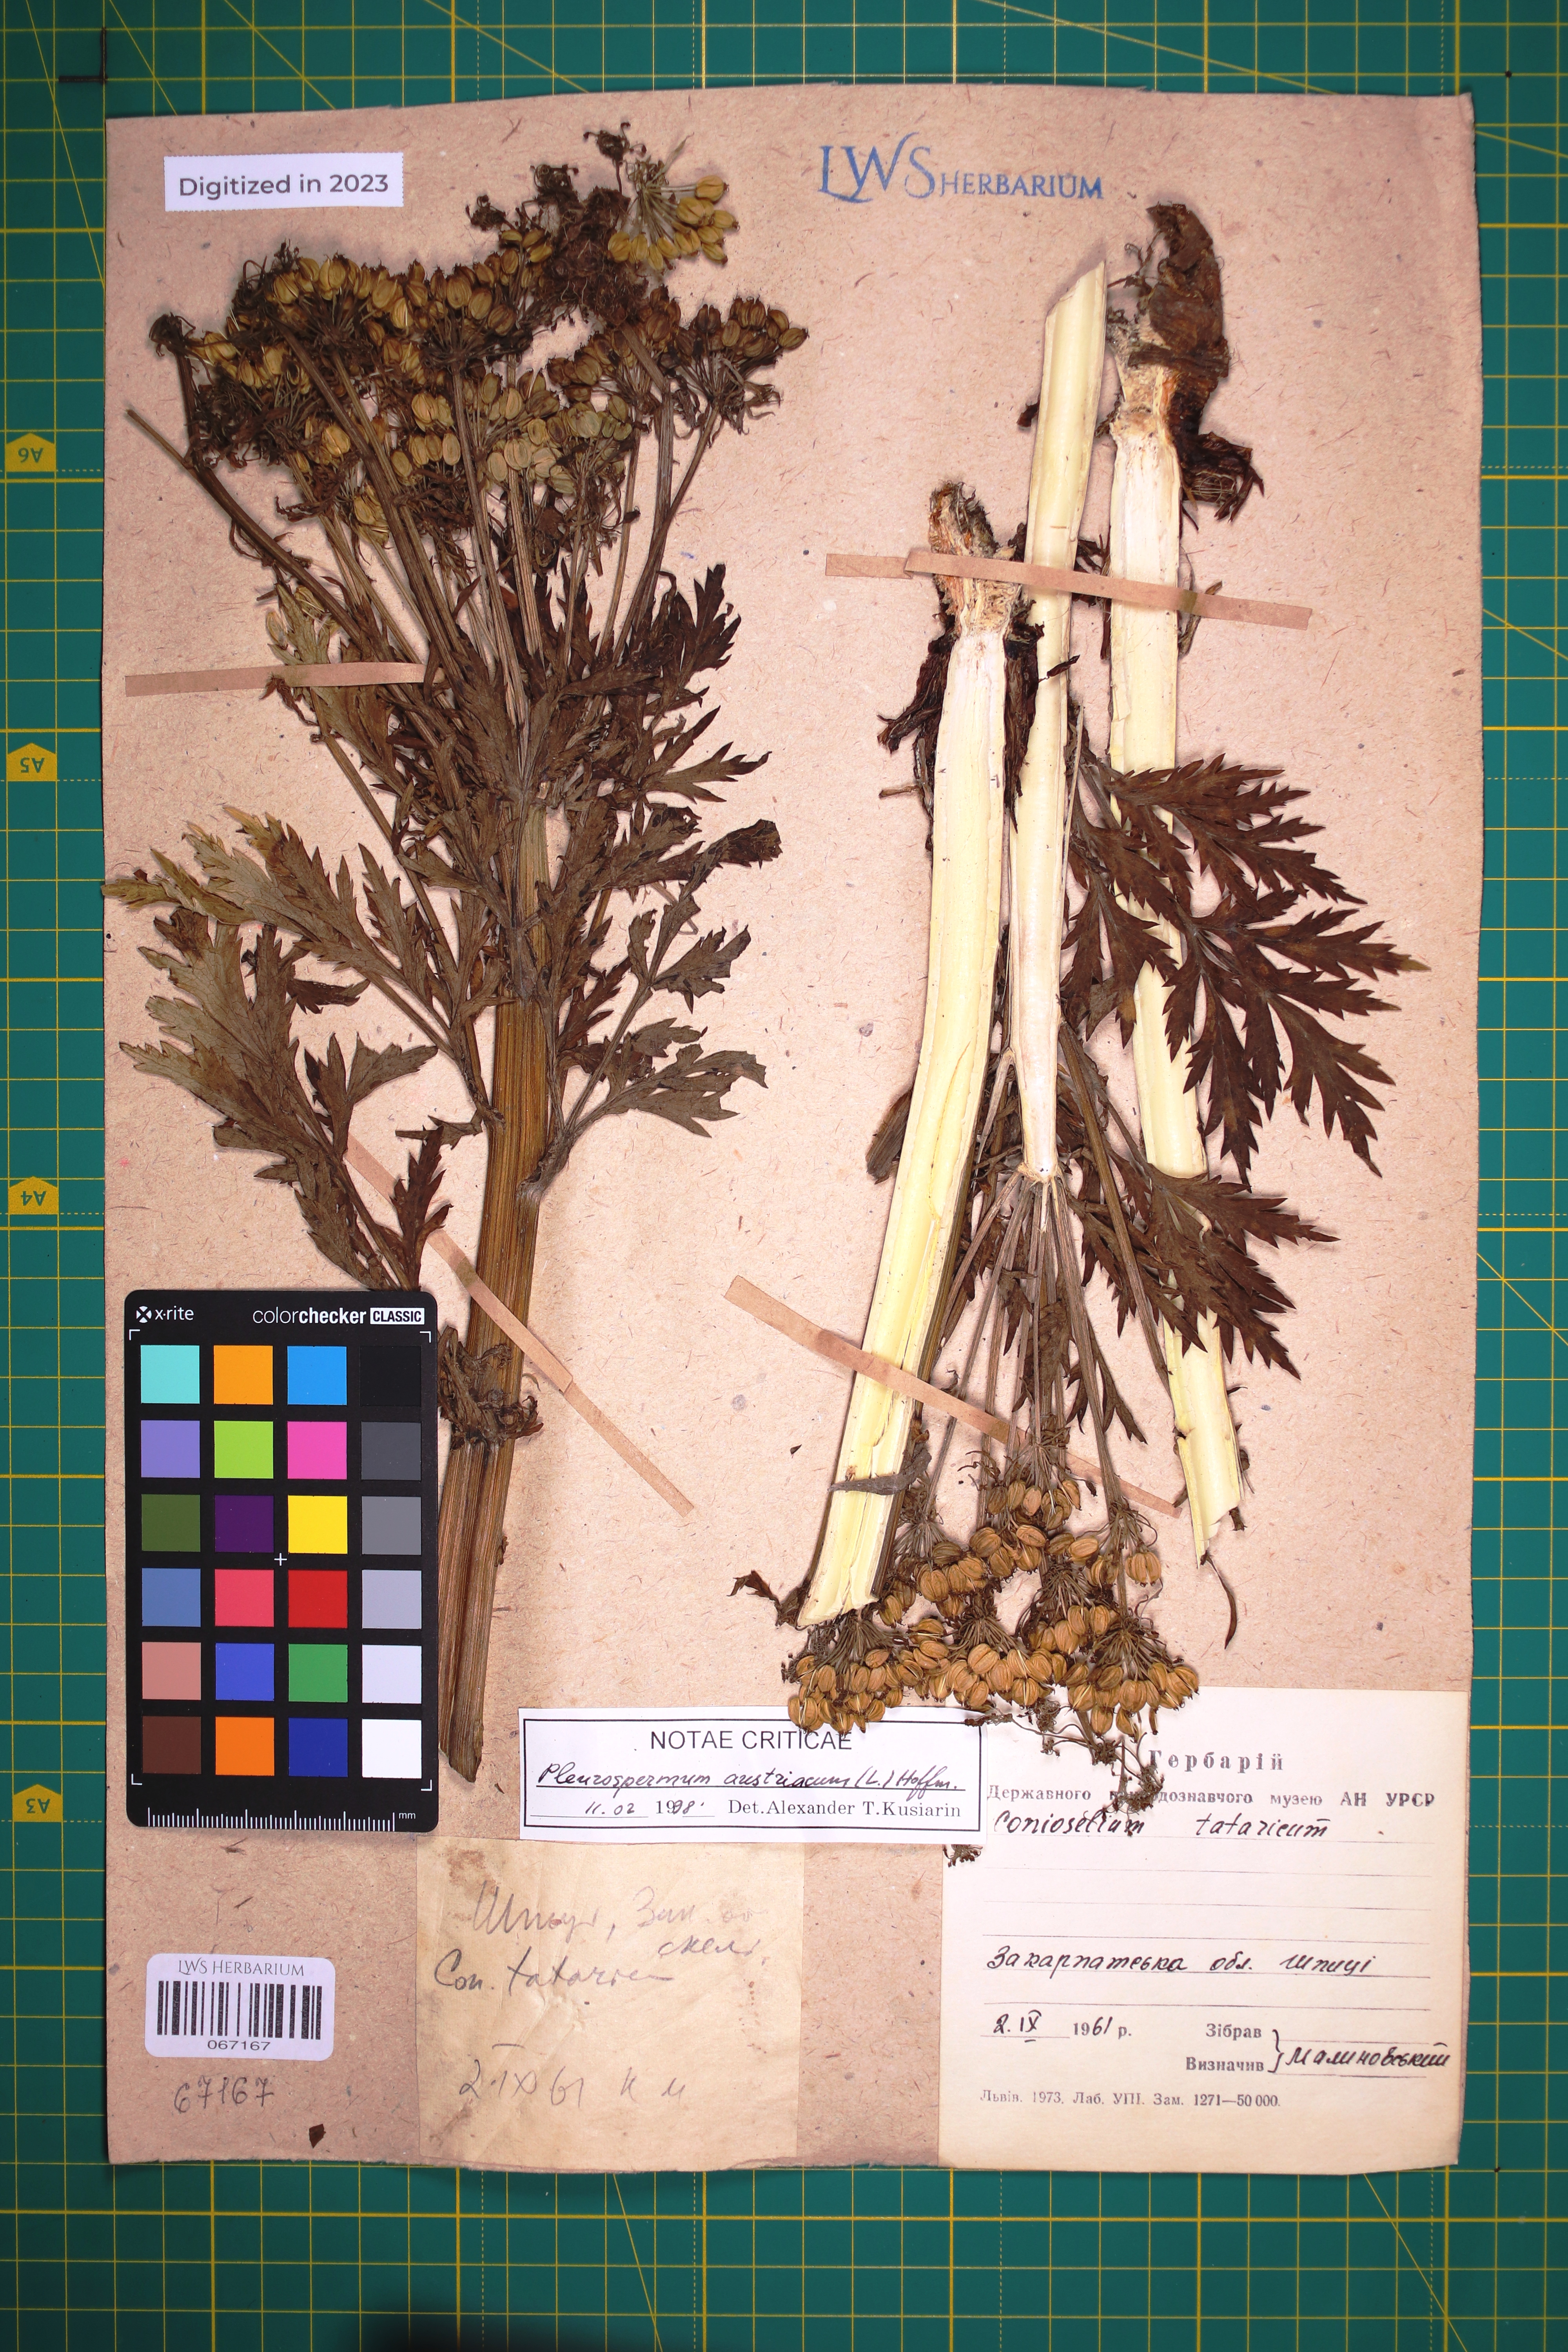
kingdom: Plantae
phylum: Tracheophyta
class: Magnoliopsida
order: Apiales
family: Apiaceae
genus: Pleurospermum
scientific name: Pleurospermum austriacum
